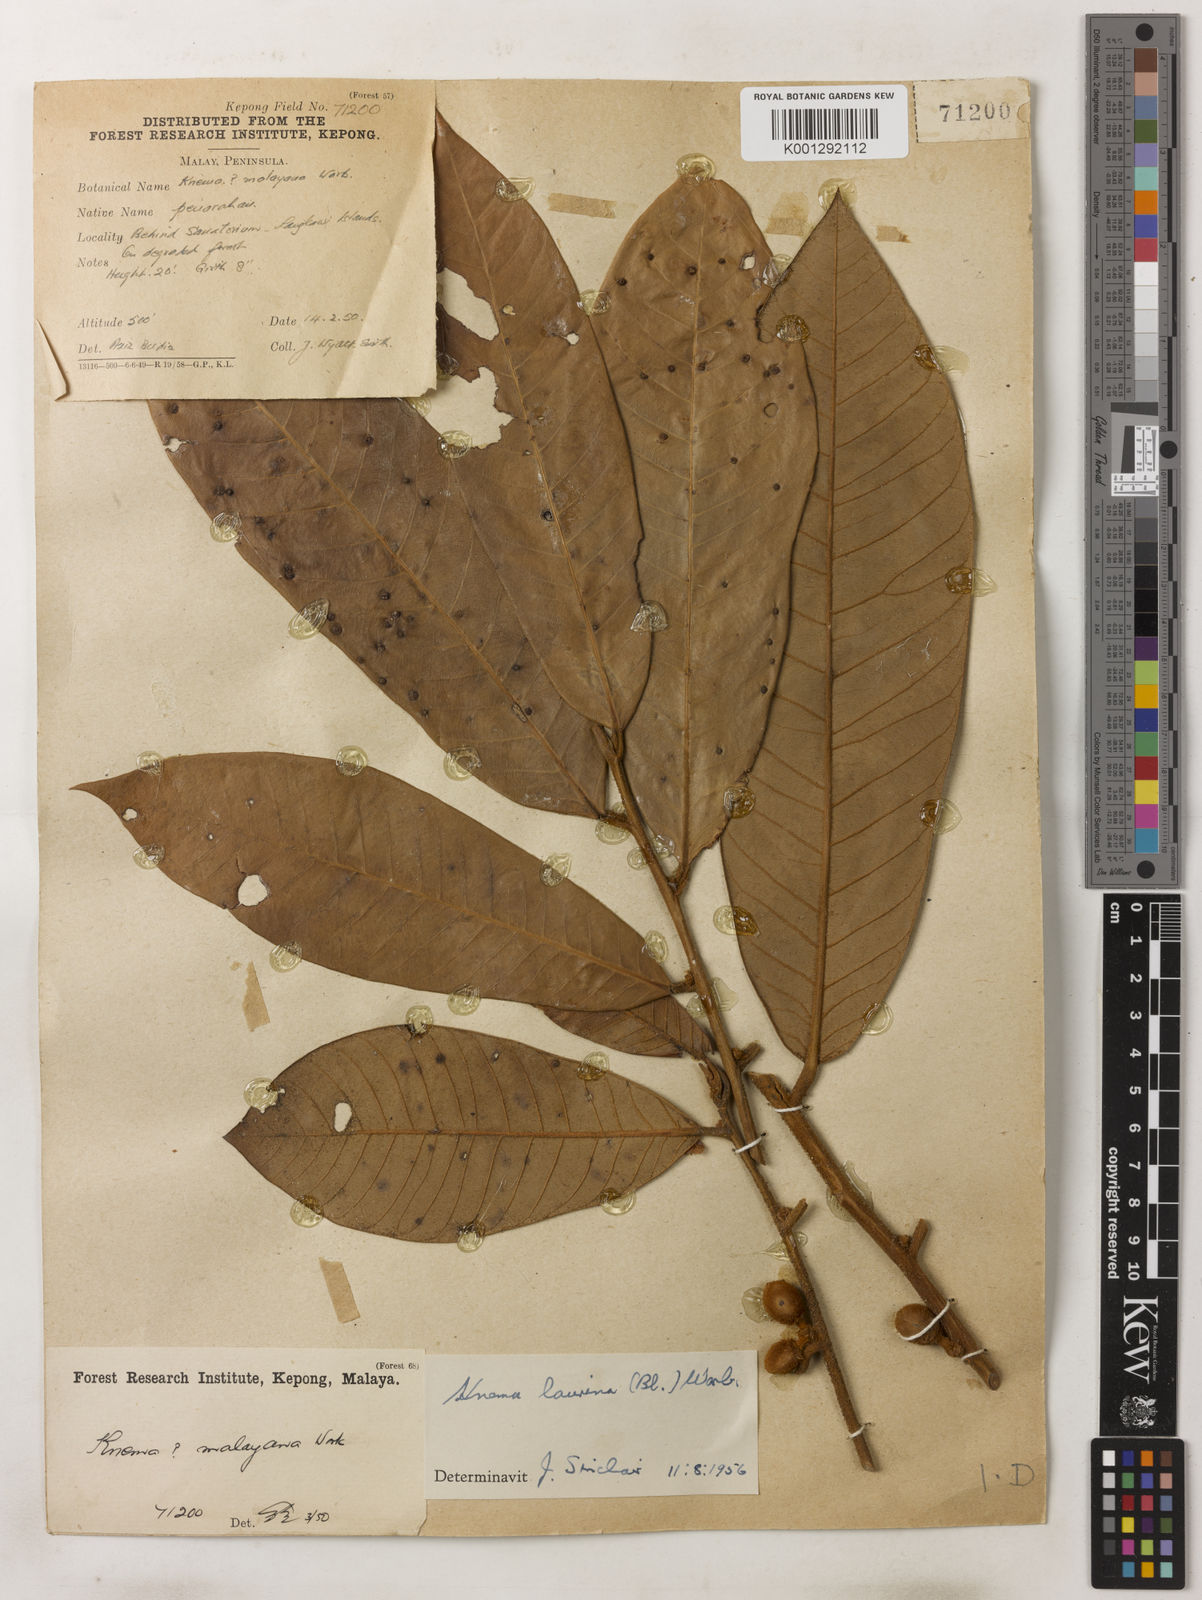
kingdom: Plantae
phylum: Tracheophyta
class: Magnoliopsida
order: Magnoliales
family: Myristicaceae
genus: Knema
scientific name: Knema laurina
